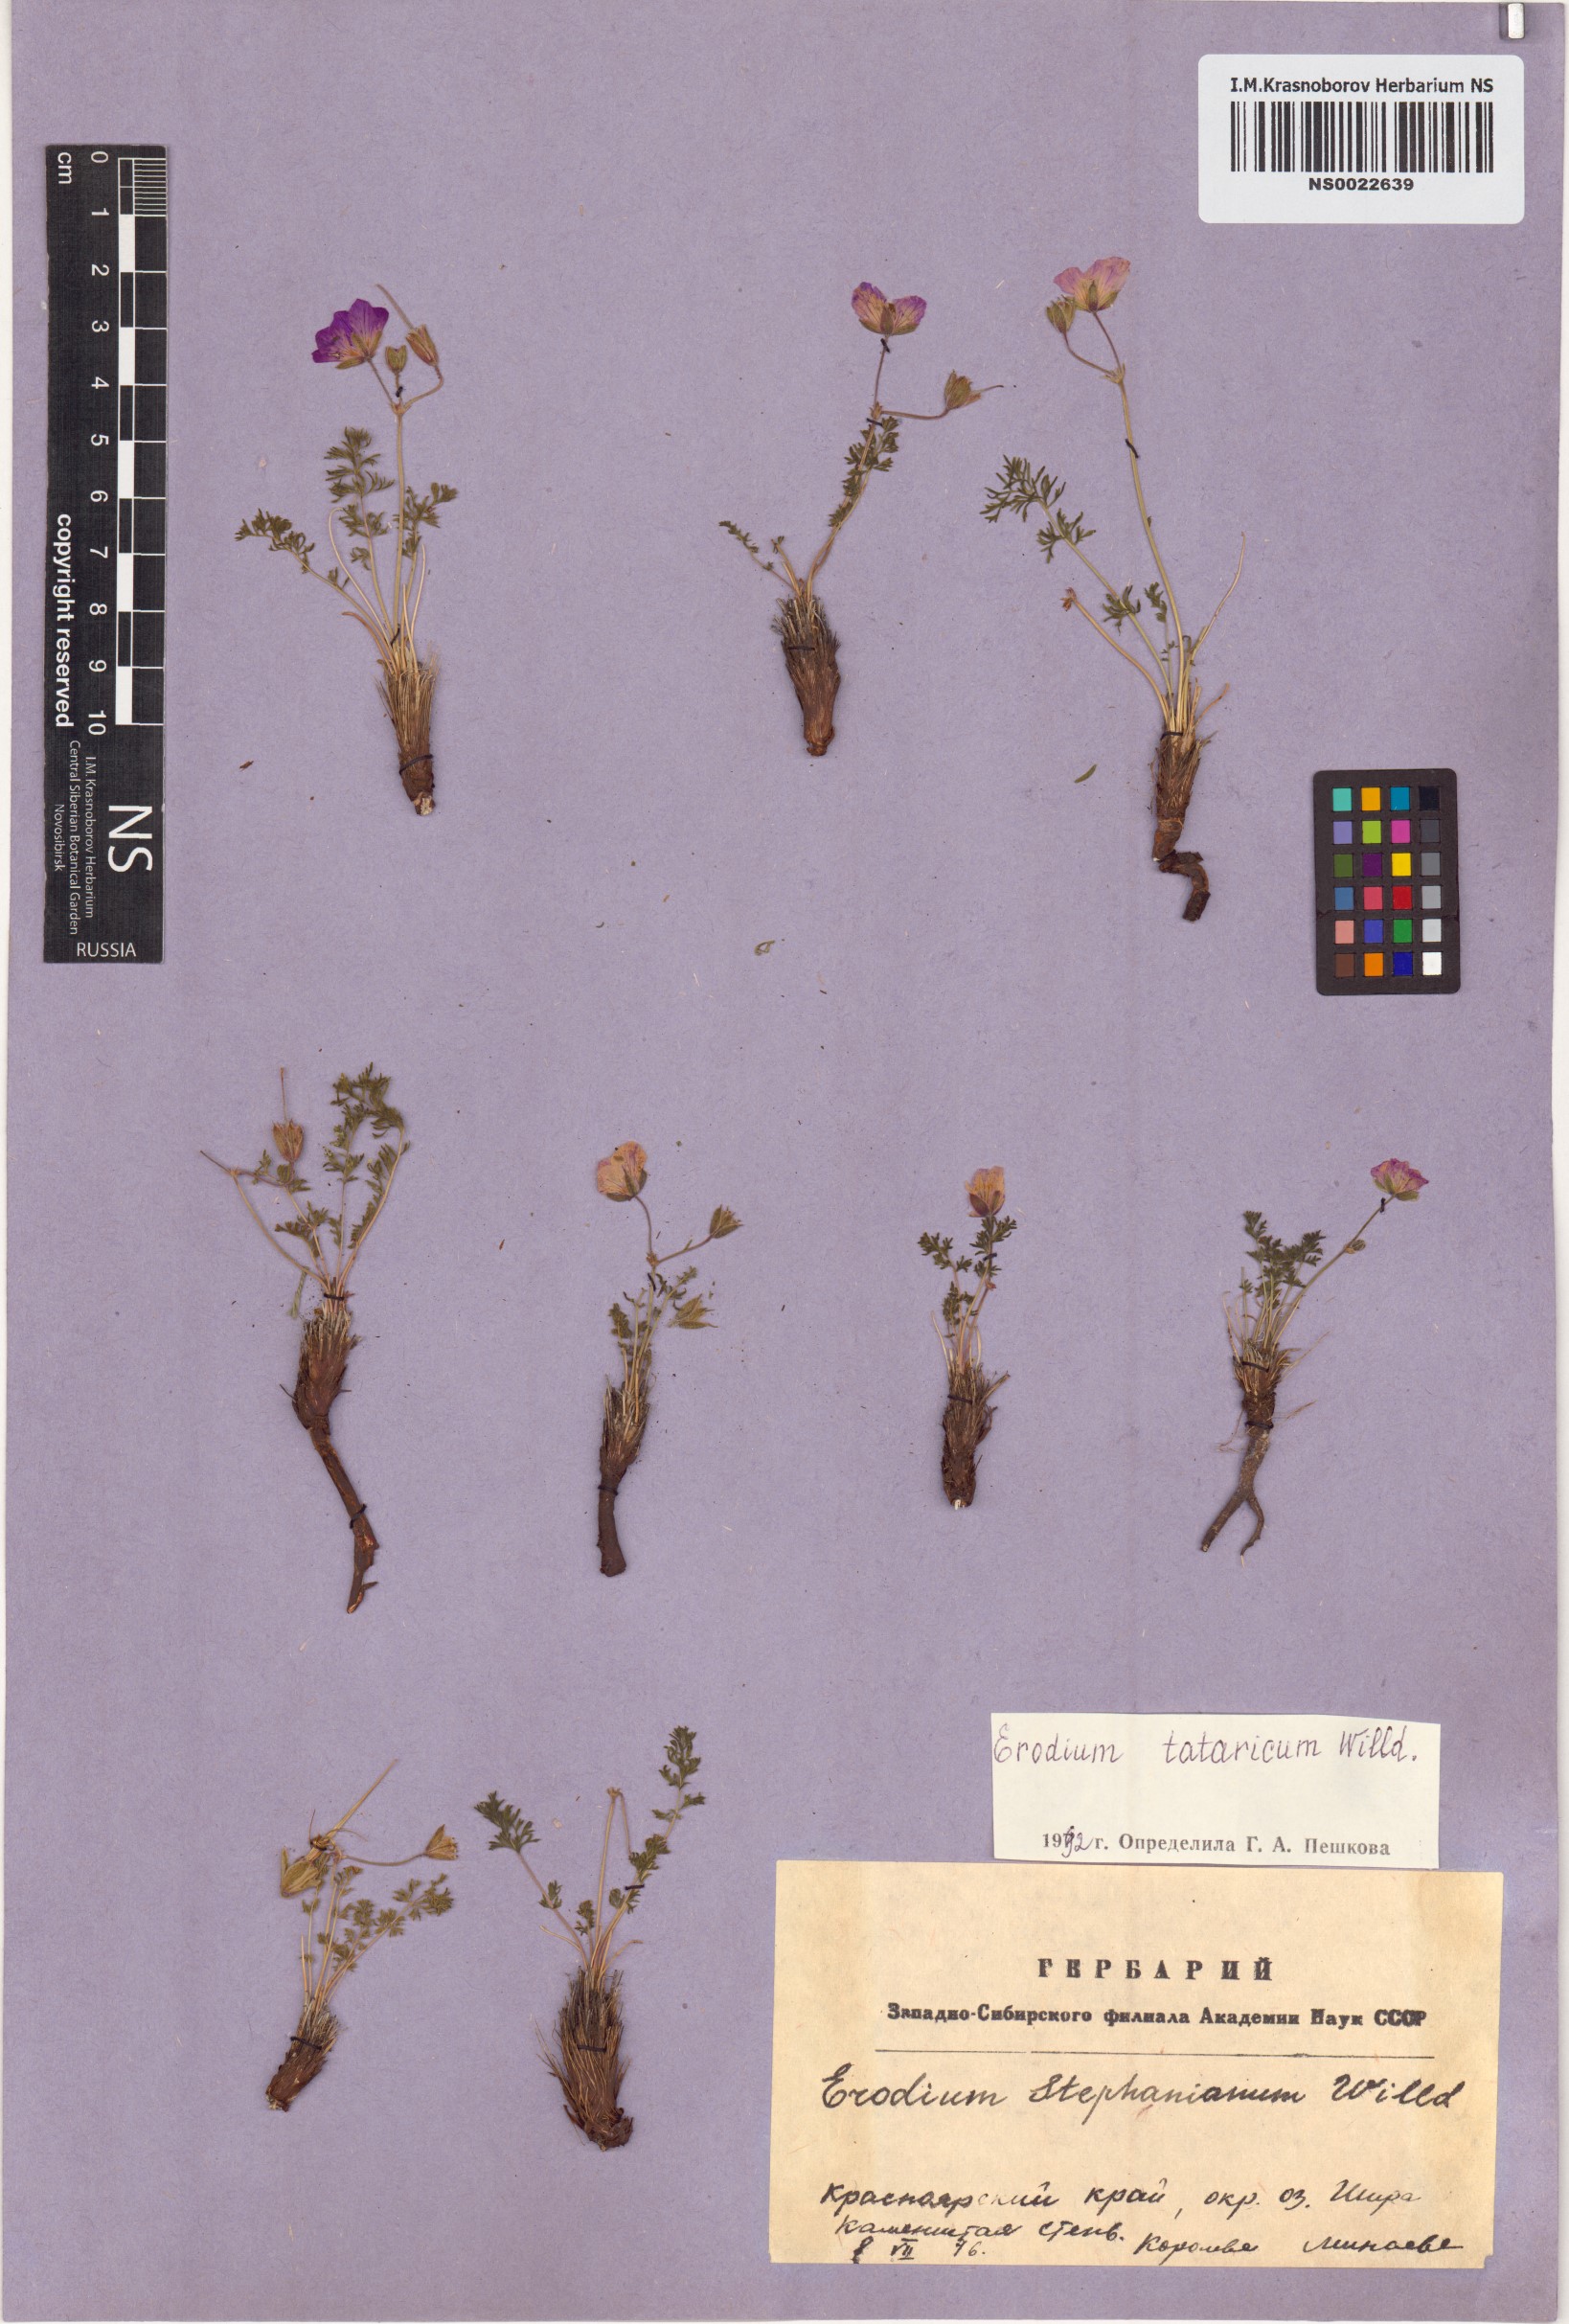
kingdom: Plantae
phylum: Tracheophyta
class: Magnoliopsida
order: Geraniales
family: Geraniaceae
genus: Erodium
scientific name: Erodium tataricum
